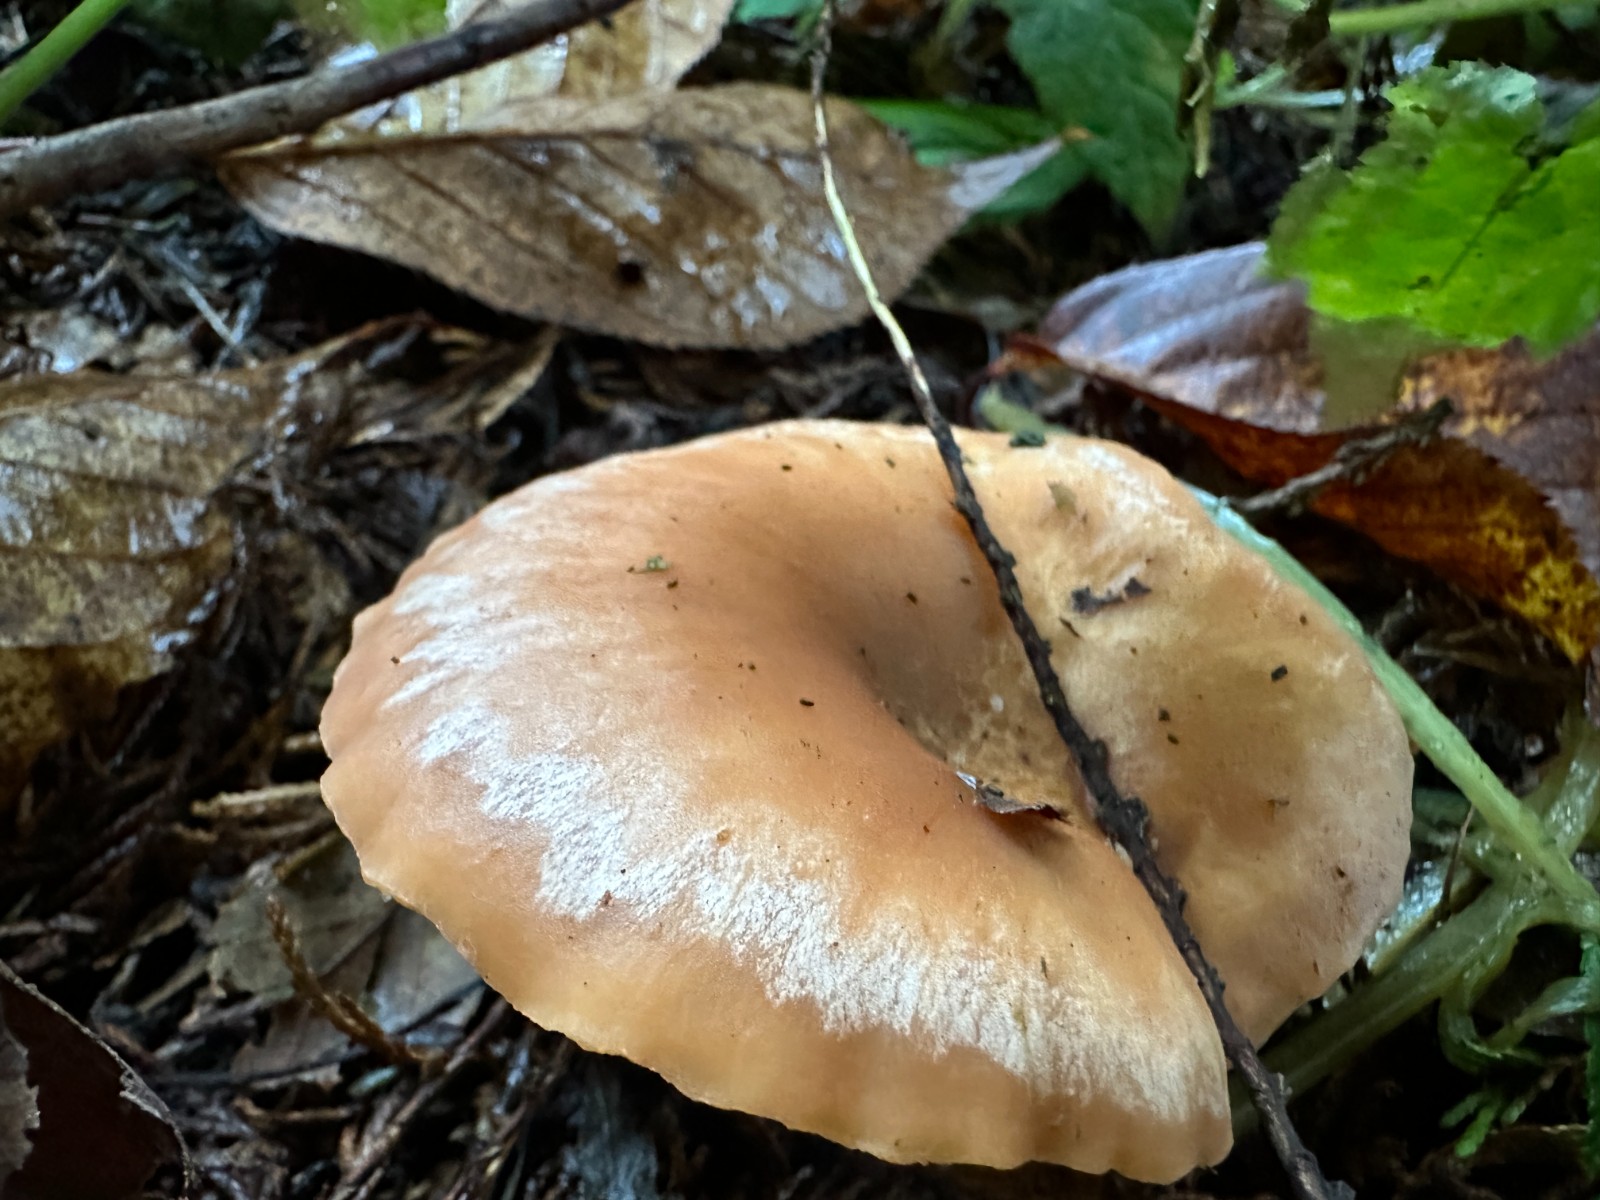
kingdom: Fungi
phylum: Basidiomycota
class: Agaricomycetes
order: Agaricales
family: Tricholomataceae
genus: Paralepista
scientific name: Paralepista flaccida
